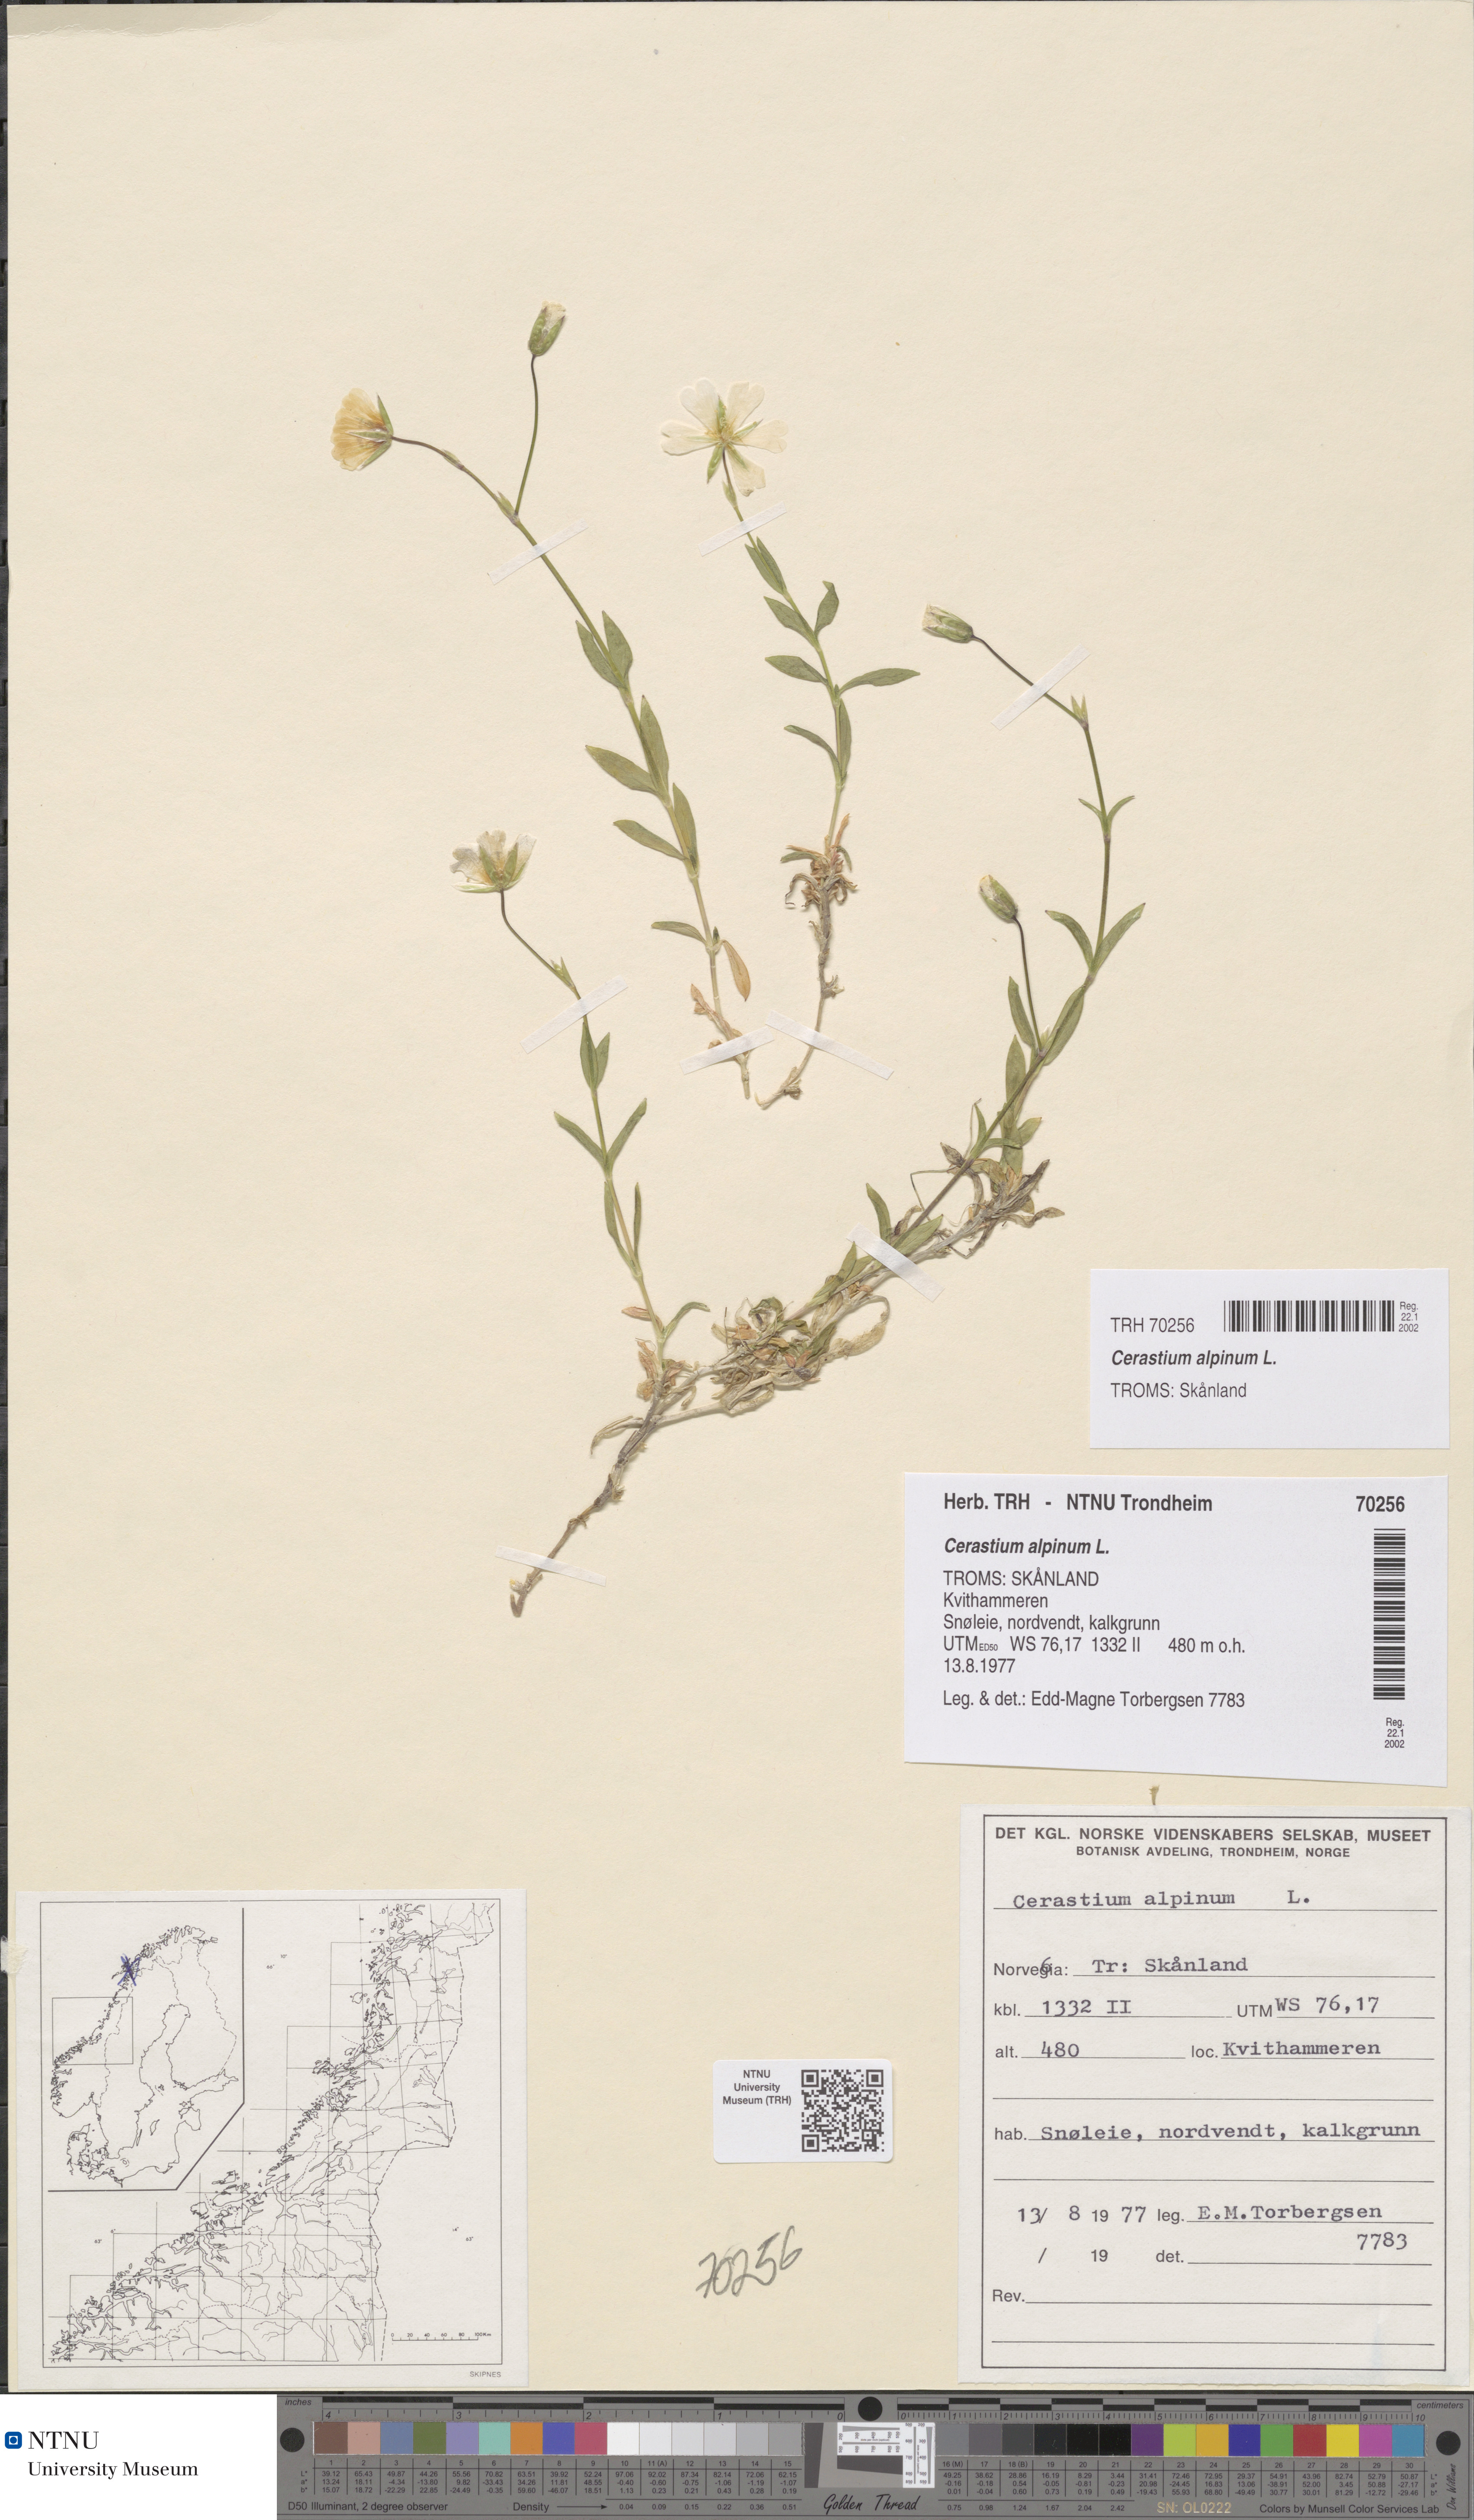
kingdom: Plantae
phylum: Tracheophyta
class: Magnoliopsida
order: Caryophyllales
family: Caryophyllaceae
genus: Cerastium
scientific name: Cerastium alpinum
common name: Alpine mouse-ear
